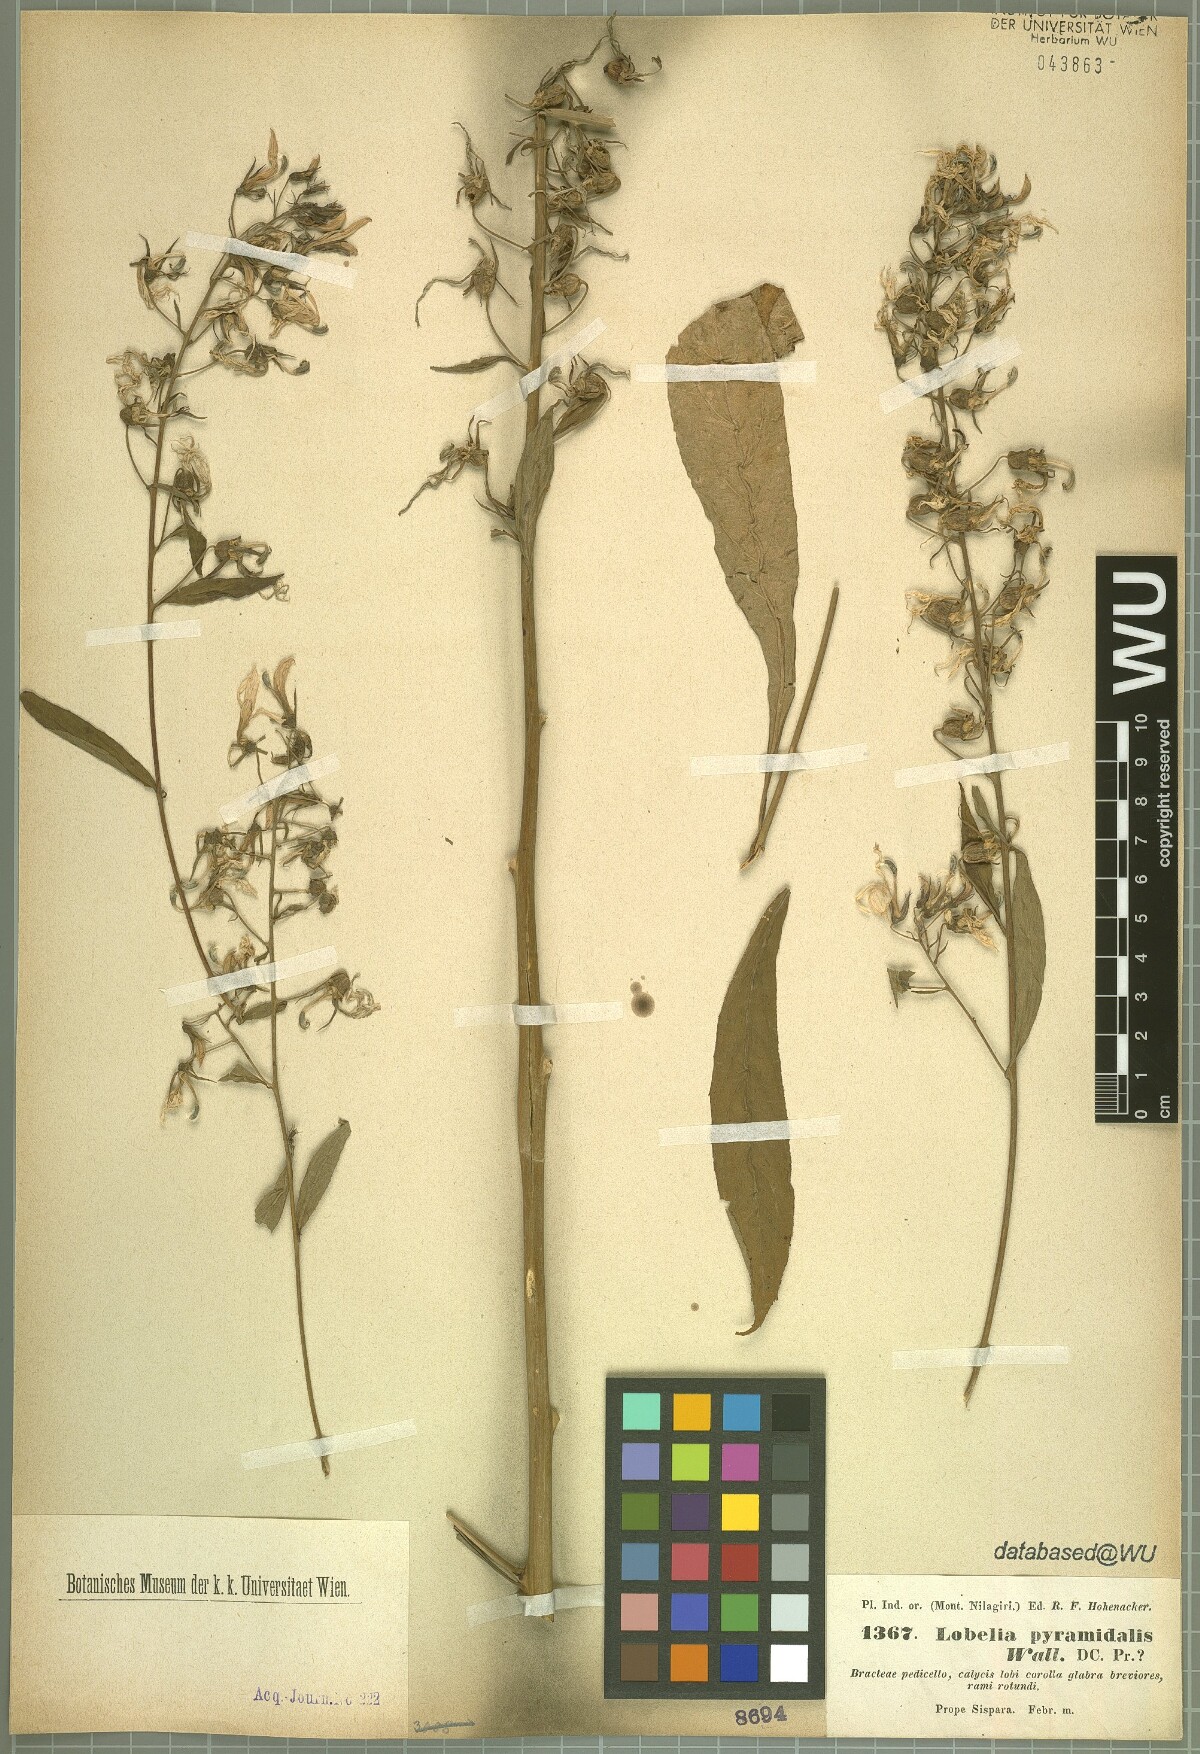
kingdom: Plantae
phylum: Tracheophyta
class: Magnoliopsida
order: Asterales
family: Campanulaceae
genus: Lobelia
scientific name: Lobelia pyramidalis
